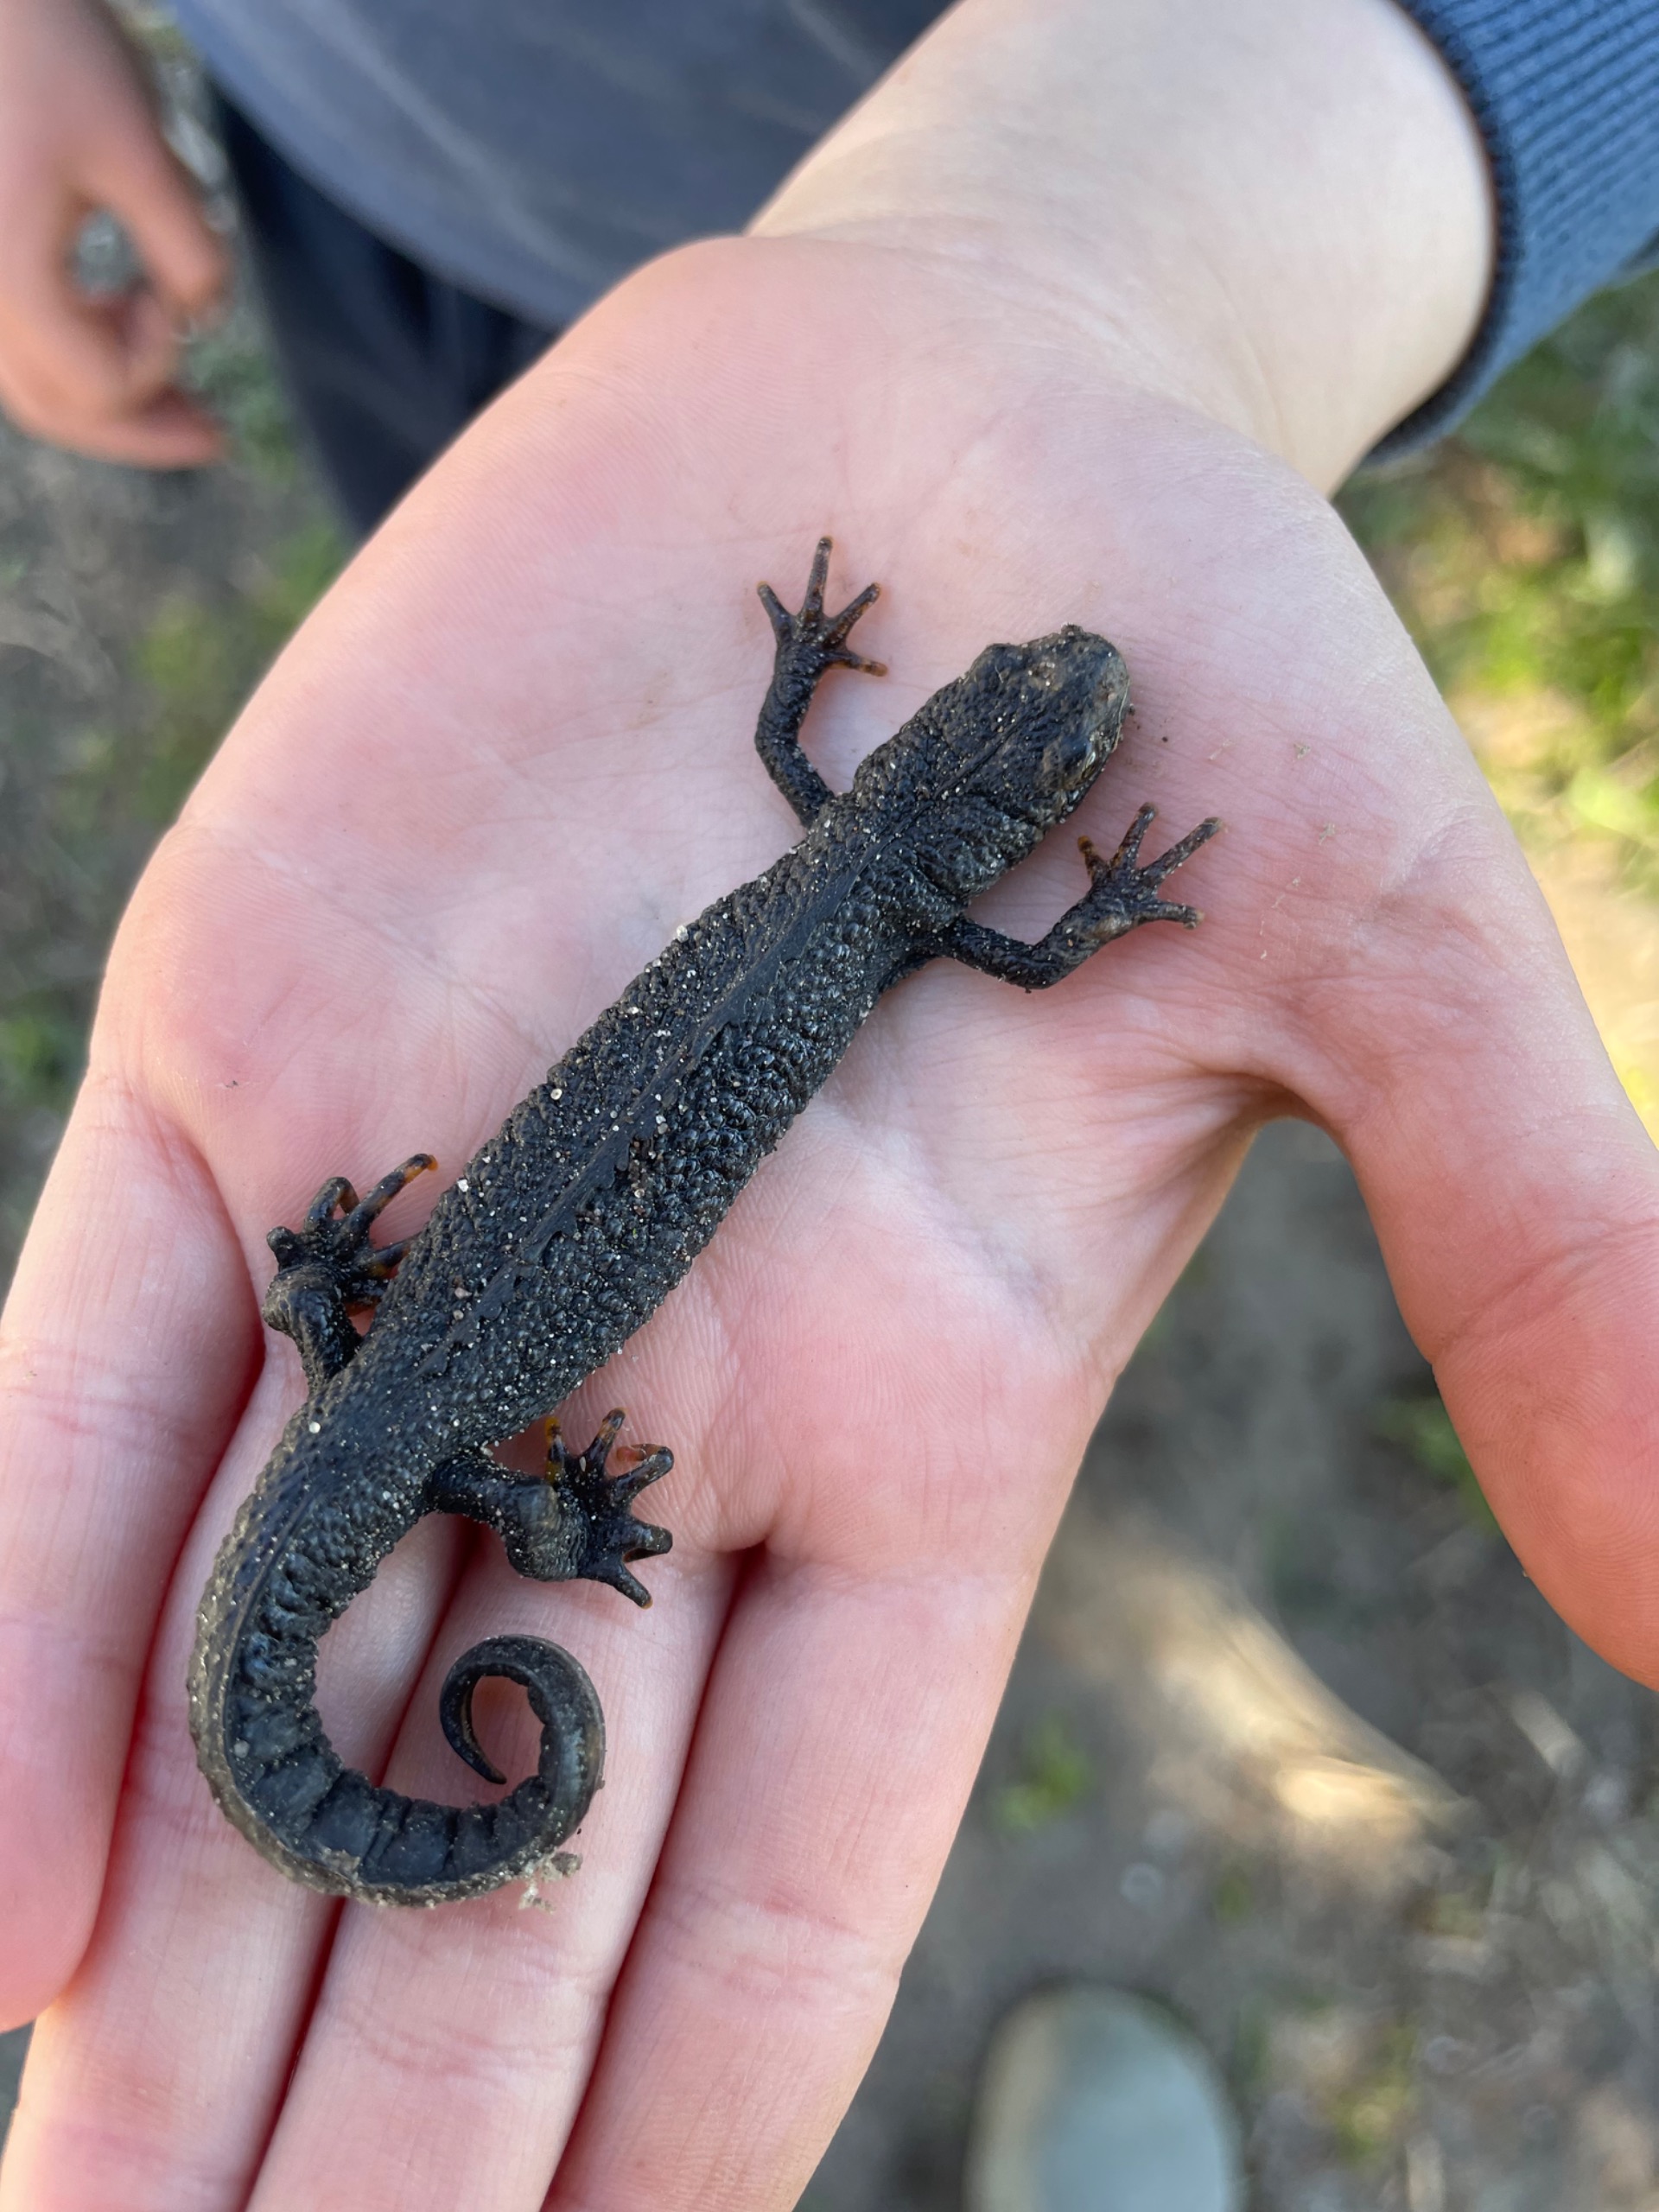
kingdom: Animalia
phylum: Chordata
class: Amphibia
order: Caudata
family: Salamandridae
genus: Triturus
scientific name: Triturus cristatus
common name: Stor vandsalamander
